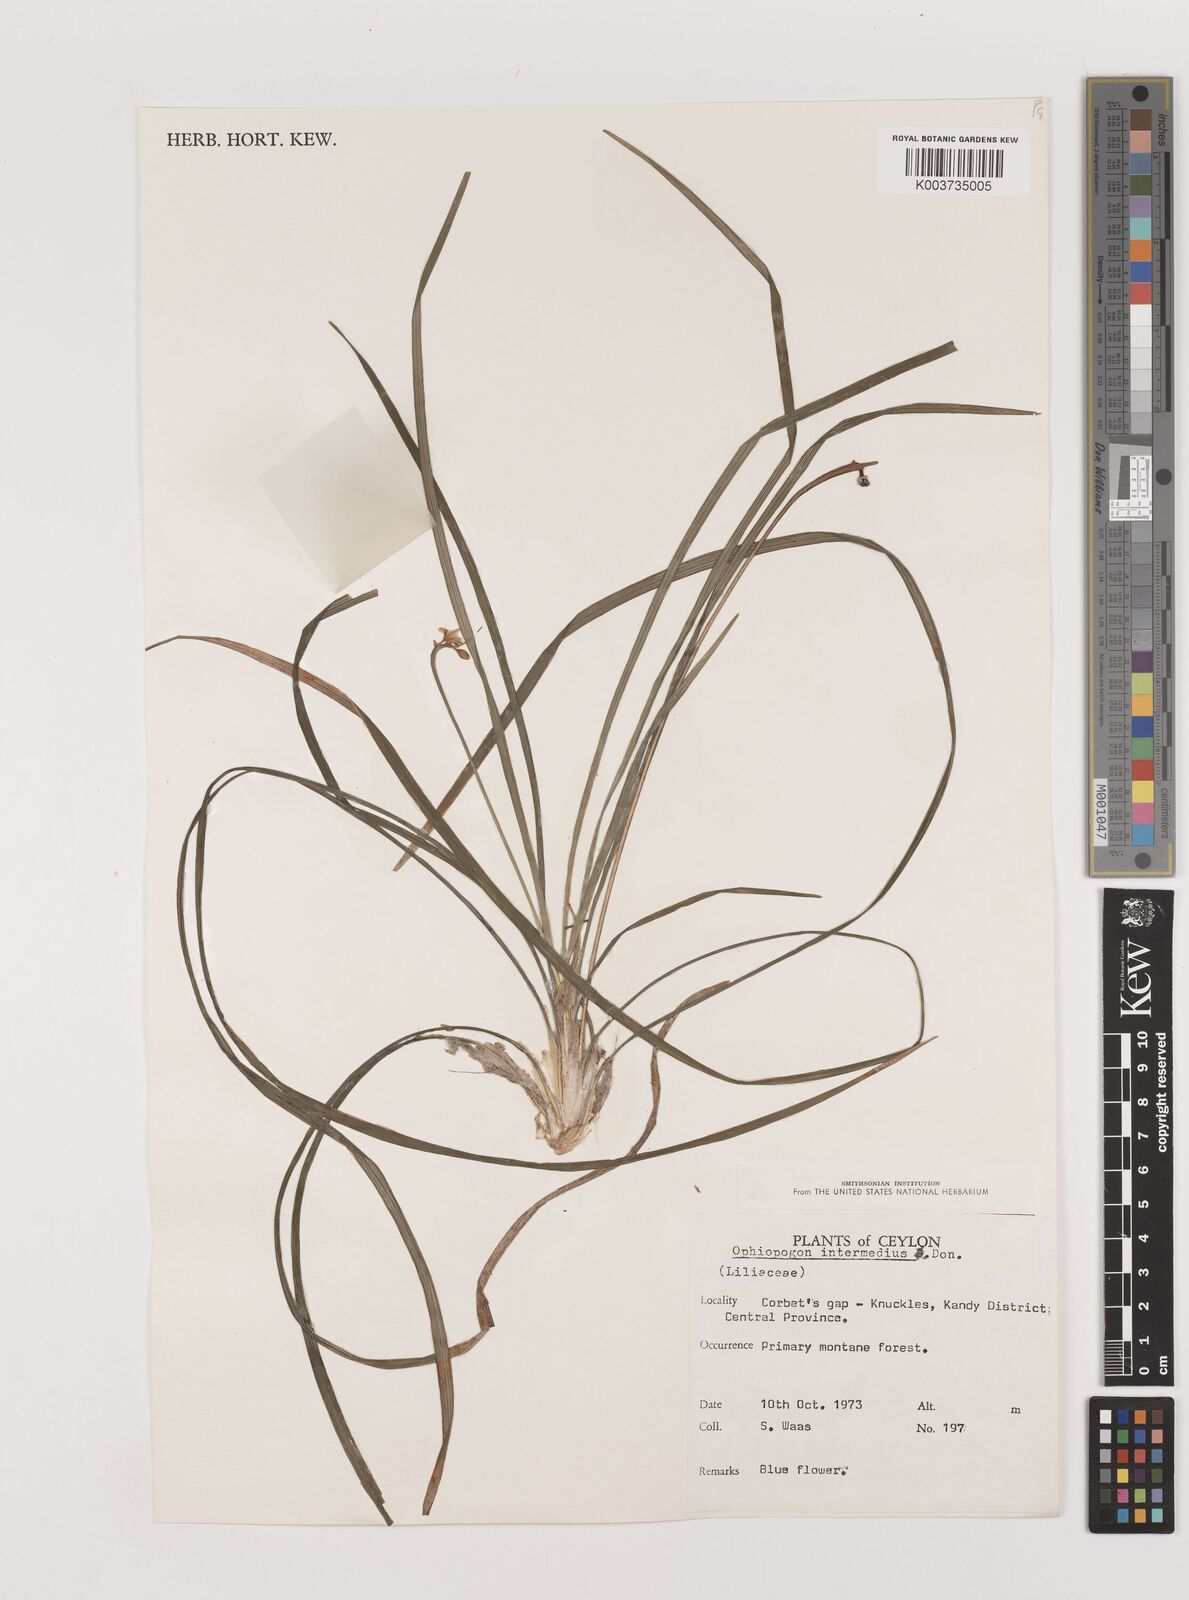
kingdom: Plantae
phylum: Tracheophyta
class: Liliopsida
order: Asparagales
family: Asparagaceae
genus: Ophiopogon
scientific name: Ophiopogon intermedius
